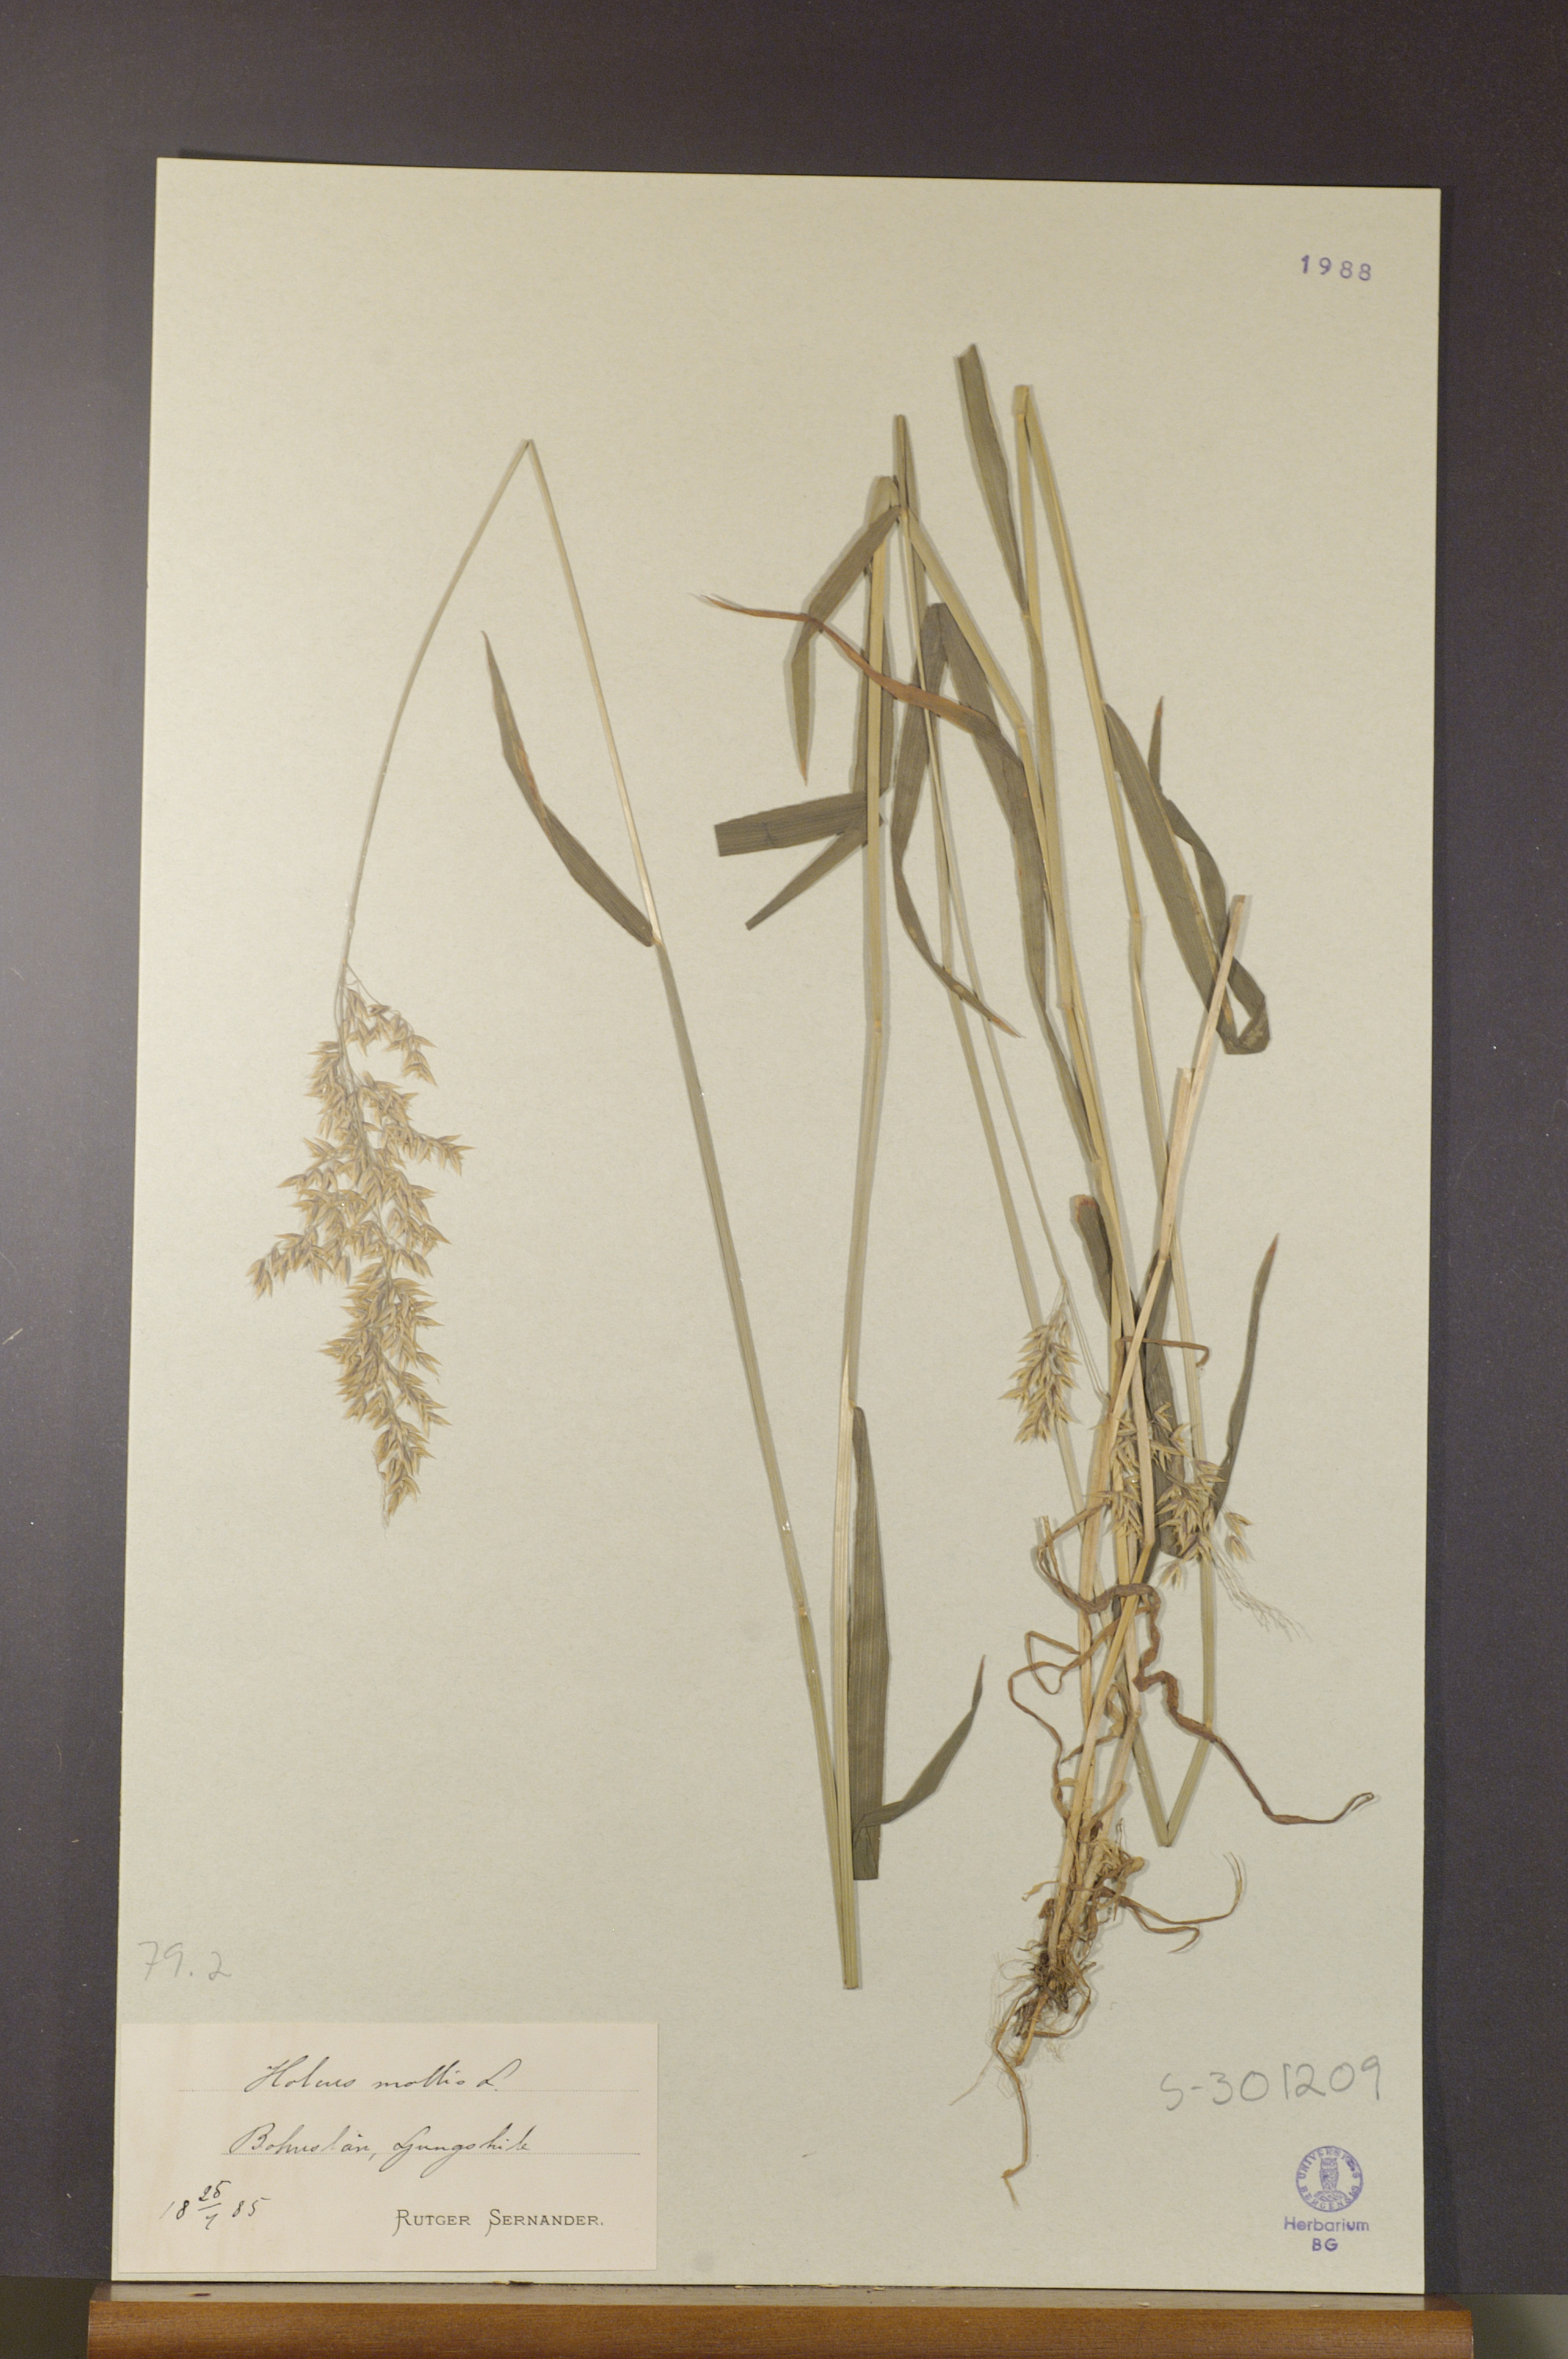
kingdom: Plantae
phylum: Tracheophyta
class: Liliopsida
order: Poales
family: Poaceae
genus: Holcus
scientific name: Holcus mollis
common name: Creeping velvetgrass
